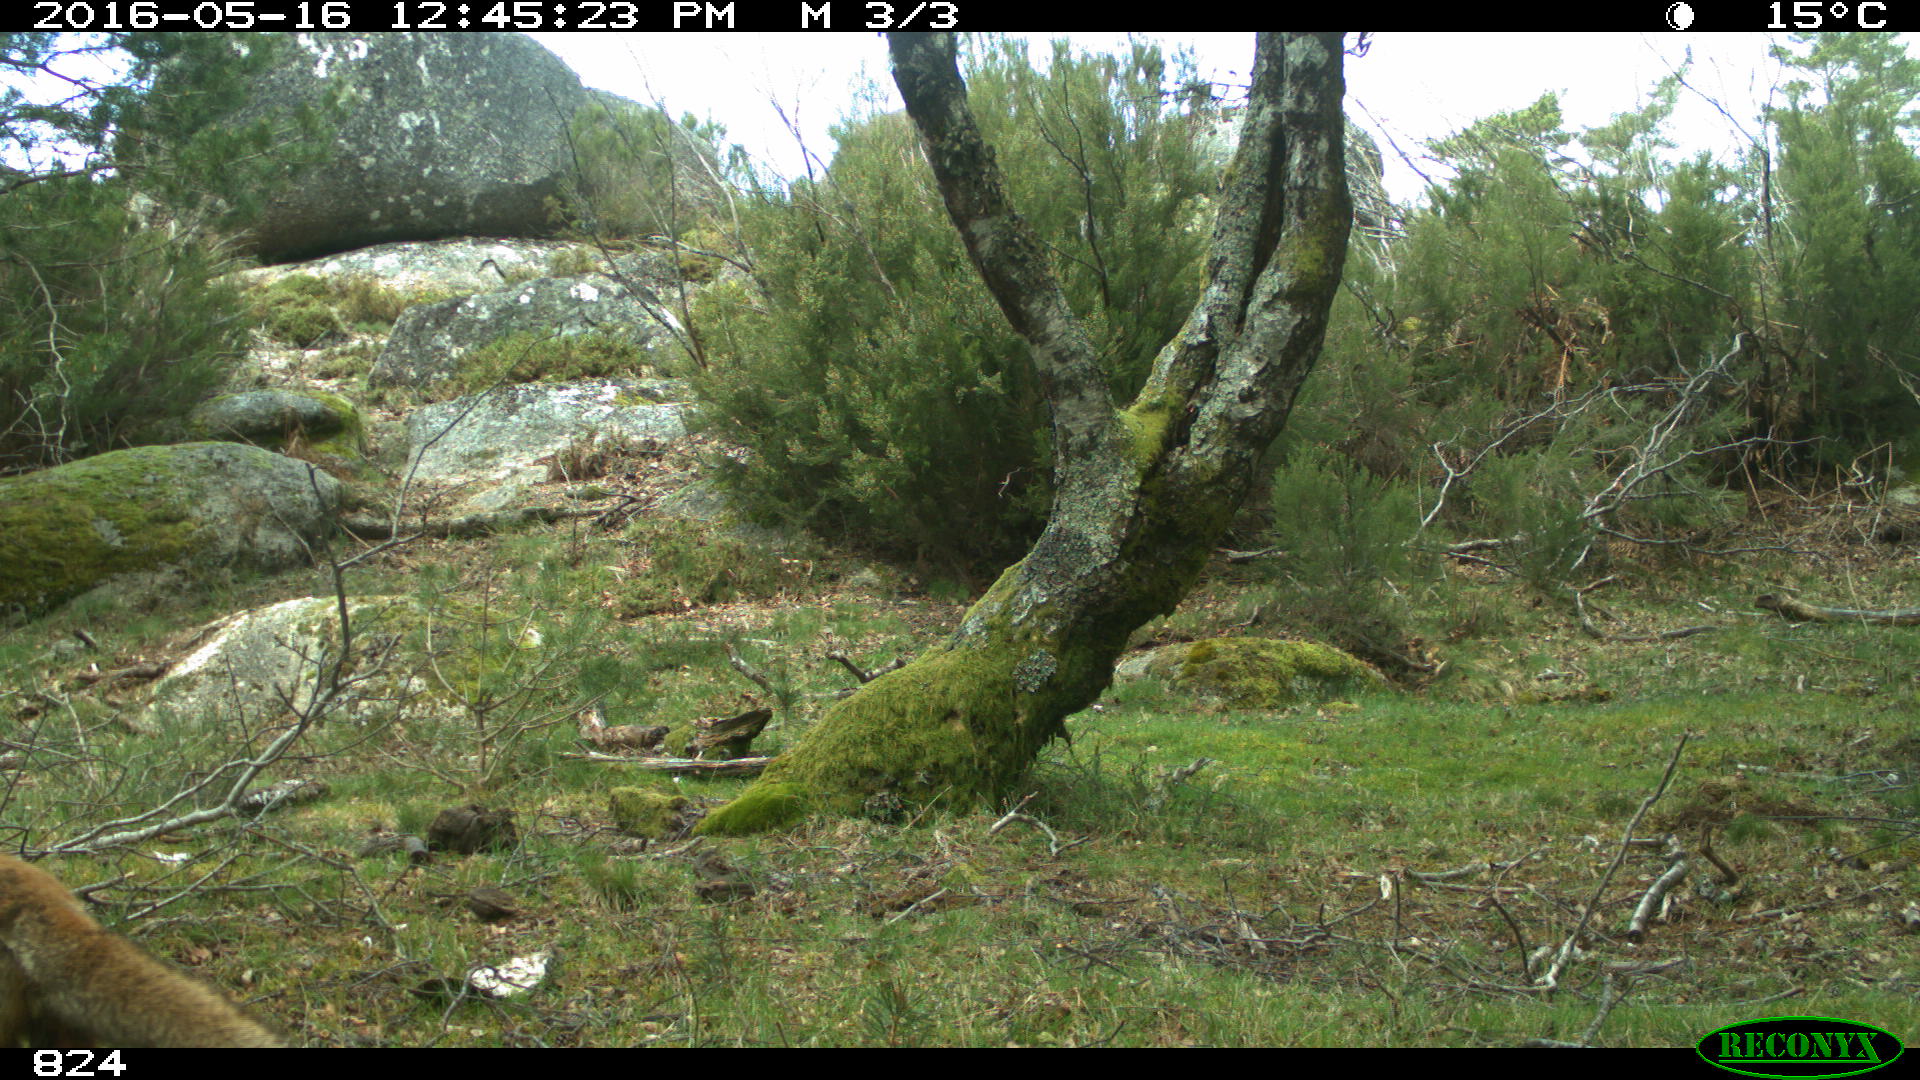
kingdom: Animalia
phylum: Chordata
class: Mammalia
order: Carnivora
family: Canidae
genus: Vulpes
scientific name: Vulpes vulpes
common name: Red fox
